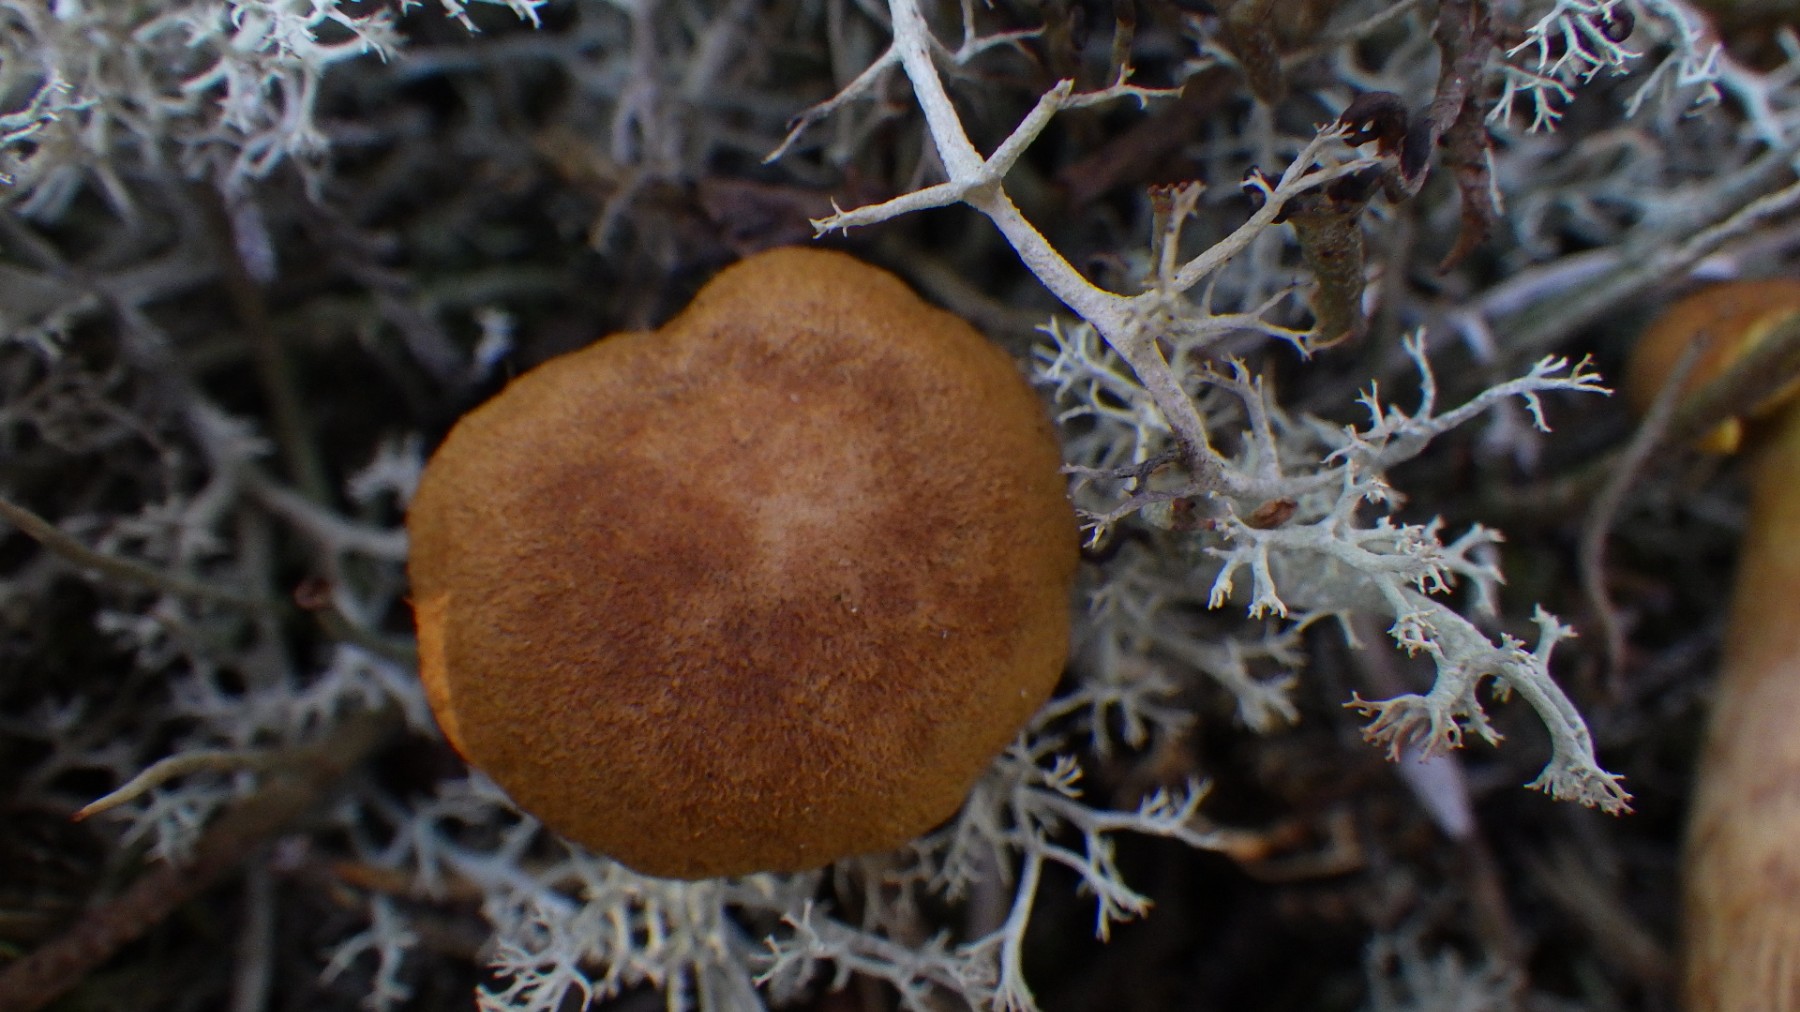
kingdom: Fungi
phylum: Basidiomycota
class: Agaricomycetes
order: Agaricales
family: Cortinariaceae
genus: Cortinarius
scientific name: Cortinarius
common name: gulbladet slørhat
